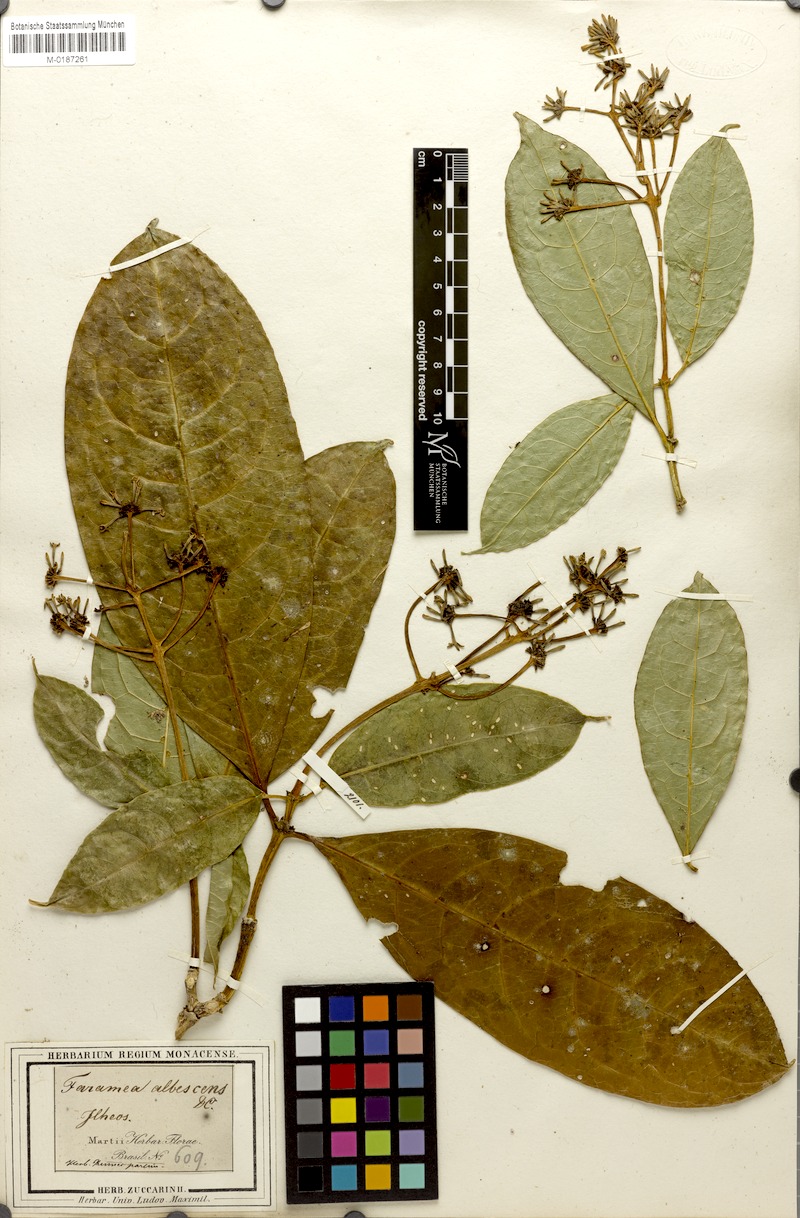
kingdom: Plantae
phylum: Tracheophyta
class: Magnoliopsida
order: Gentianales
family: Rubiaceae
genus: Coussarea
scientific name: Coussarea ilheotica
